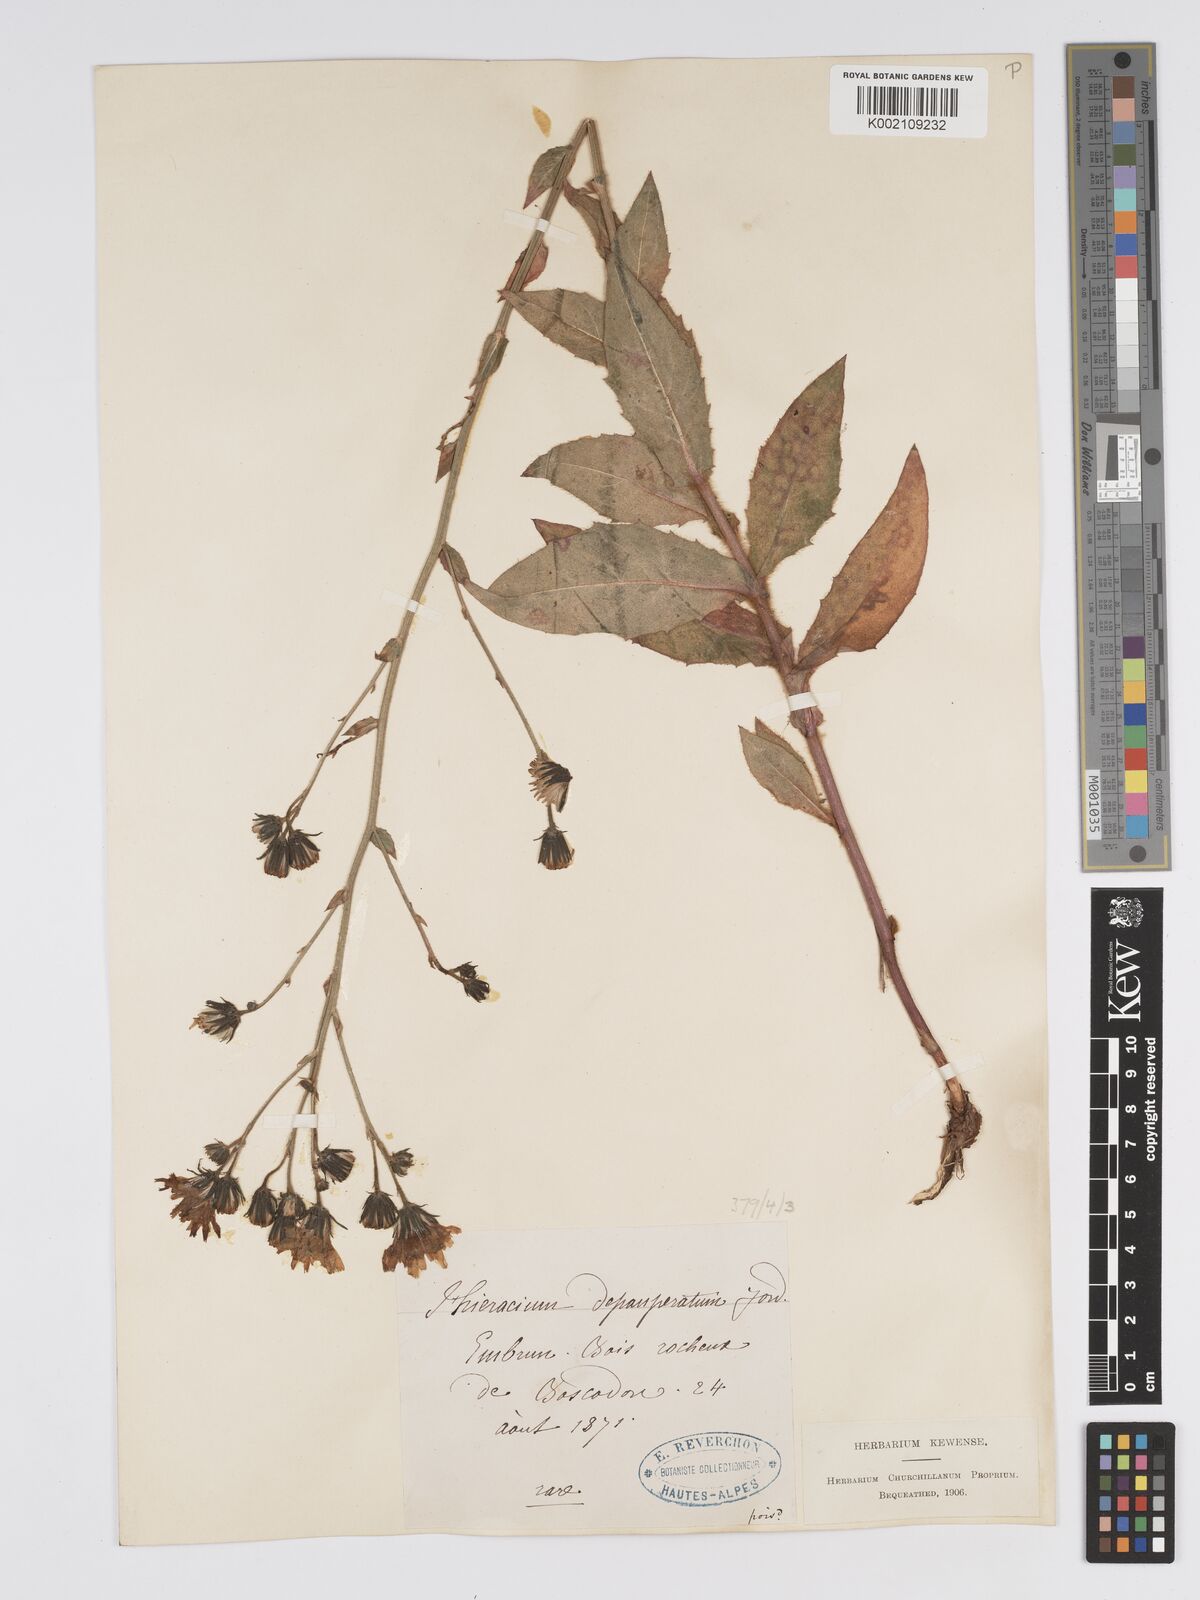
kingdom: Plantae
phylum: Tracheophyta
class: Magnoliopsida
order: Asterales
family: Asteraceae
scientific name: Asteraceae
